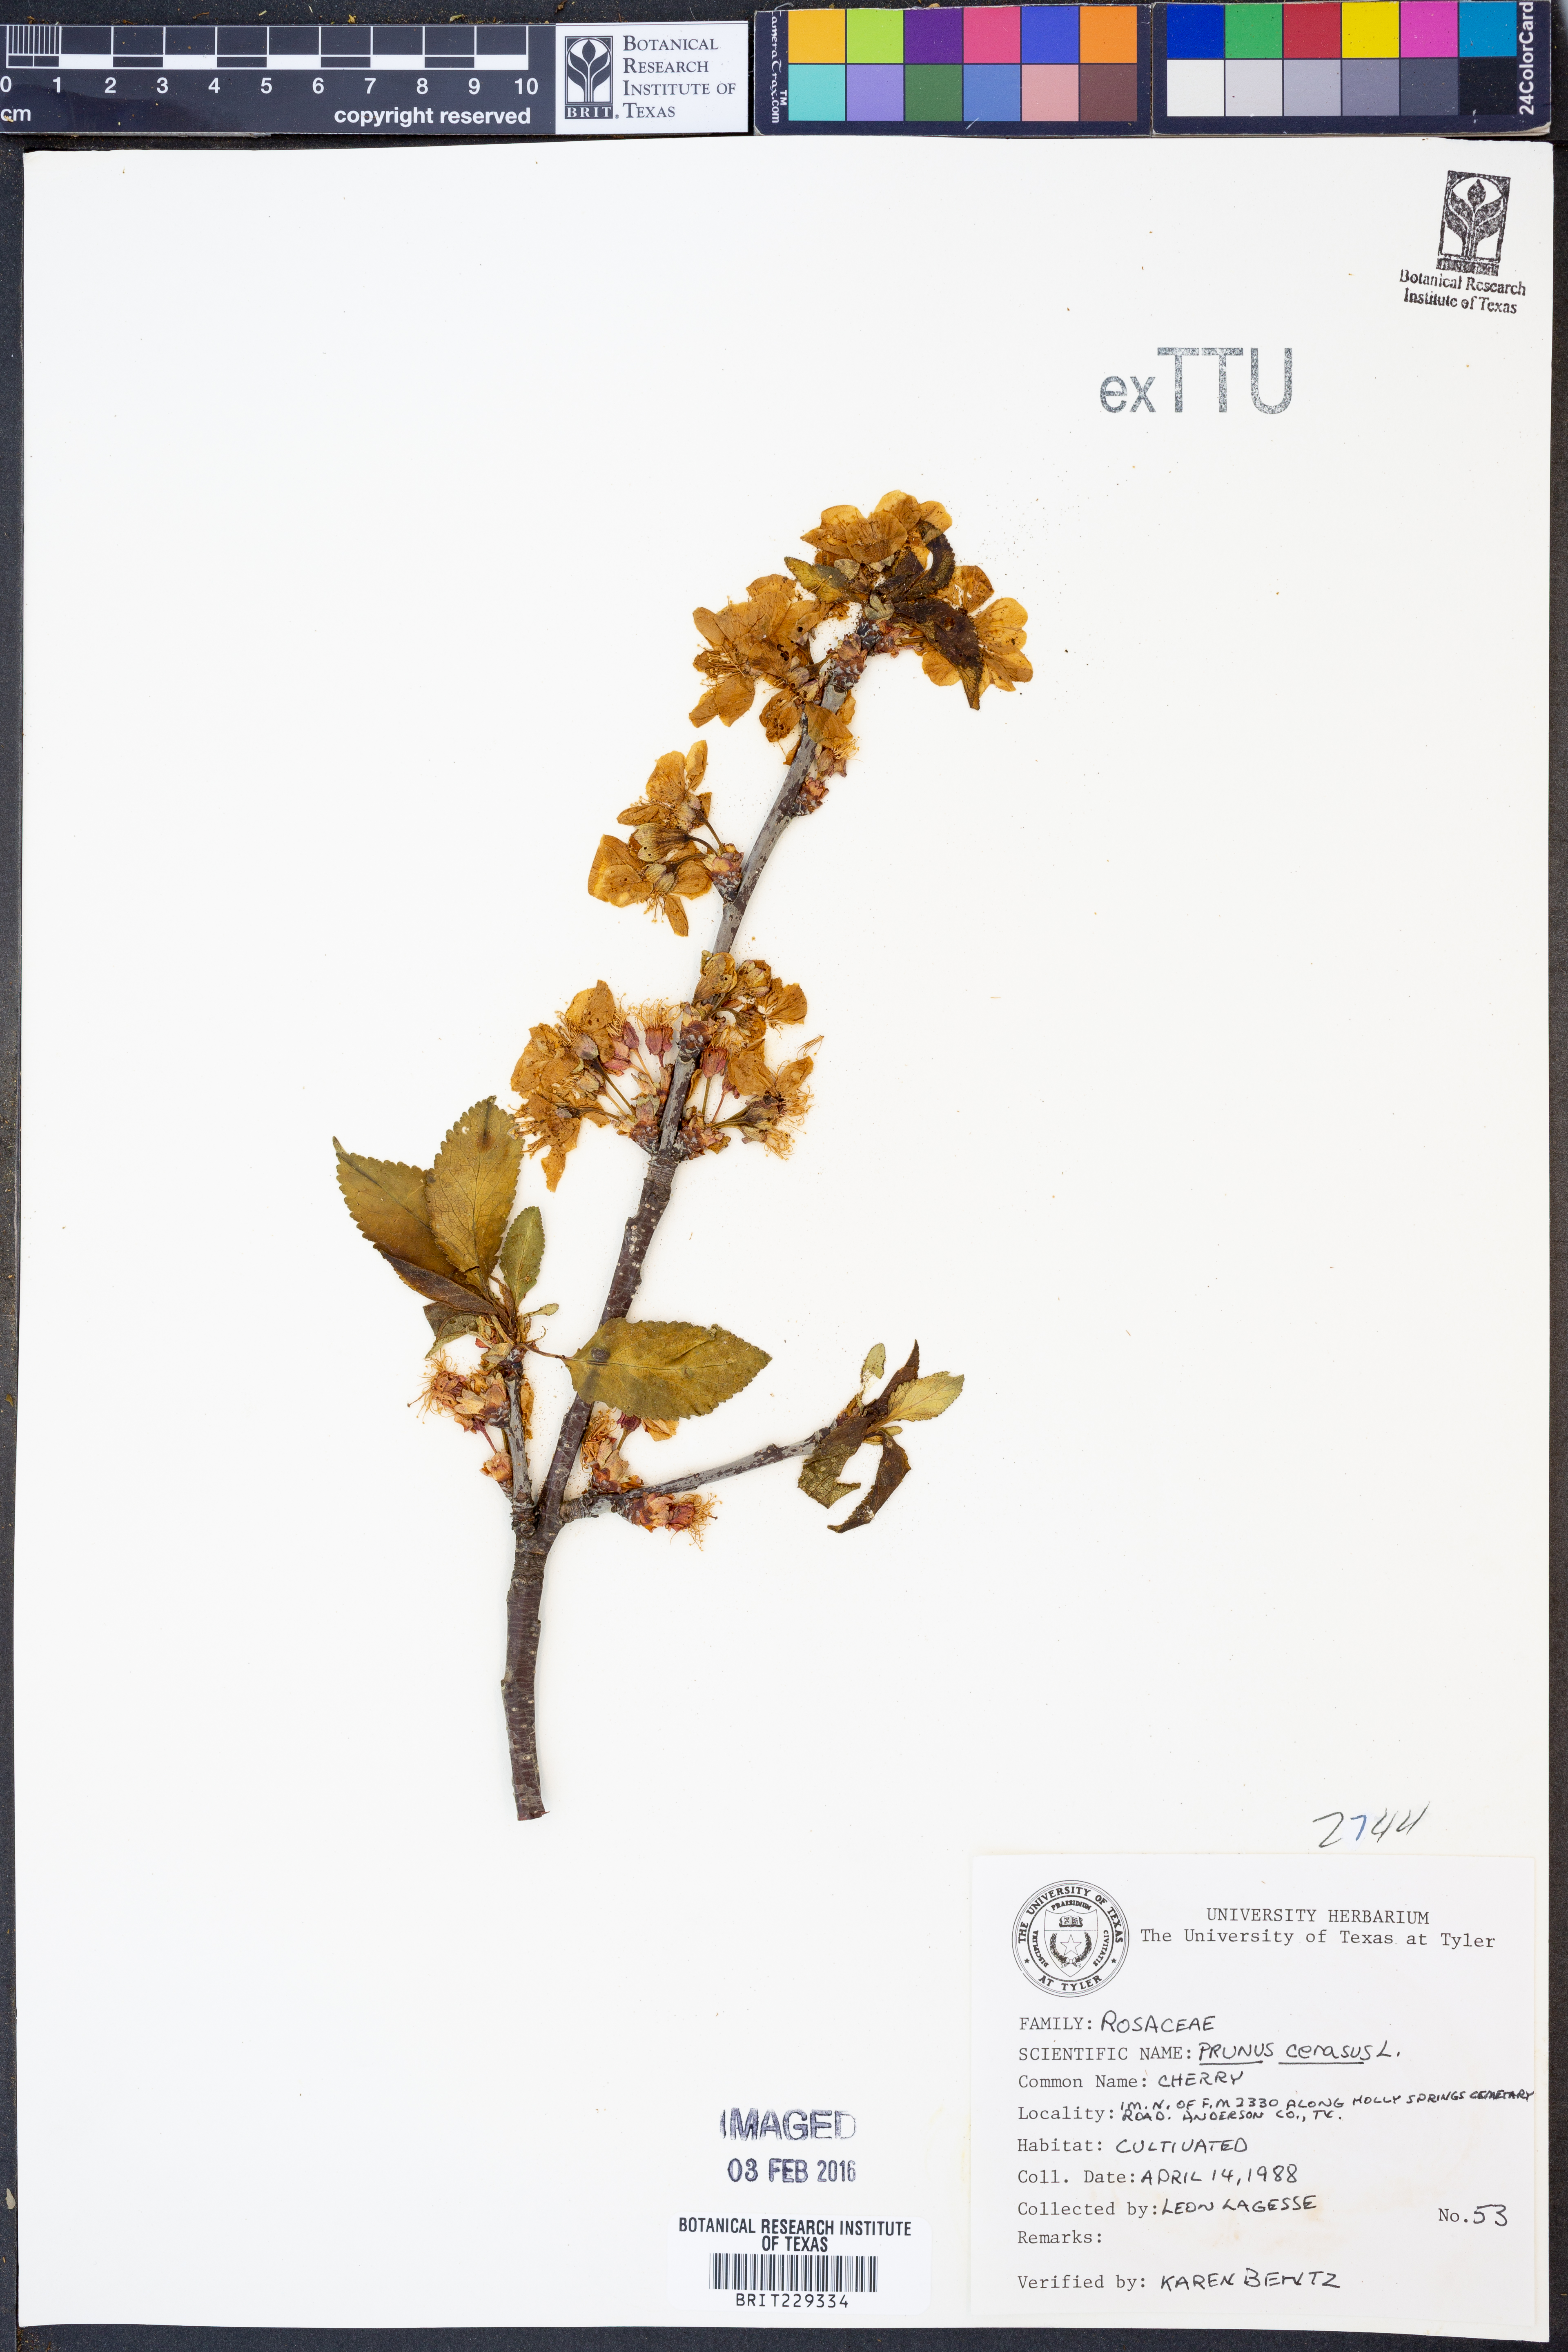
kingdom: Plantae
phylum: Tracheophyta
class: Magnoliopsida
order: Rosales
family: Rosaceae
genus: Prunus
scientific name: Prunus cerasus
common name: Morello cherry
